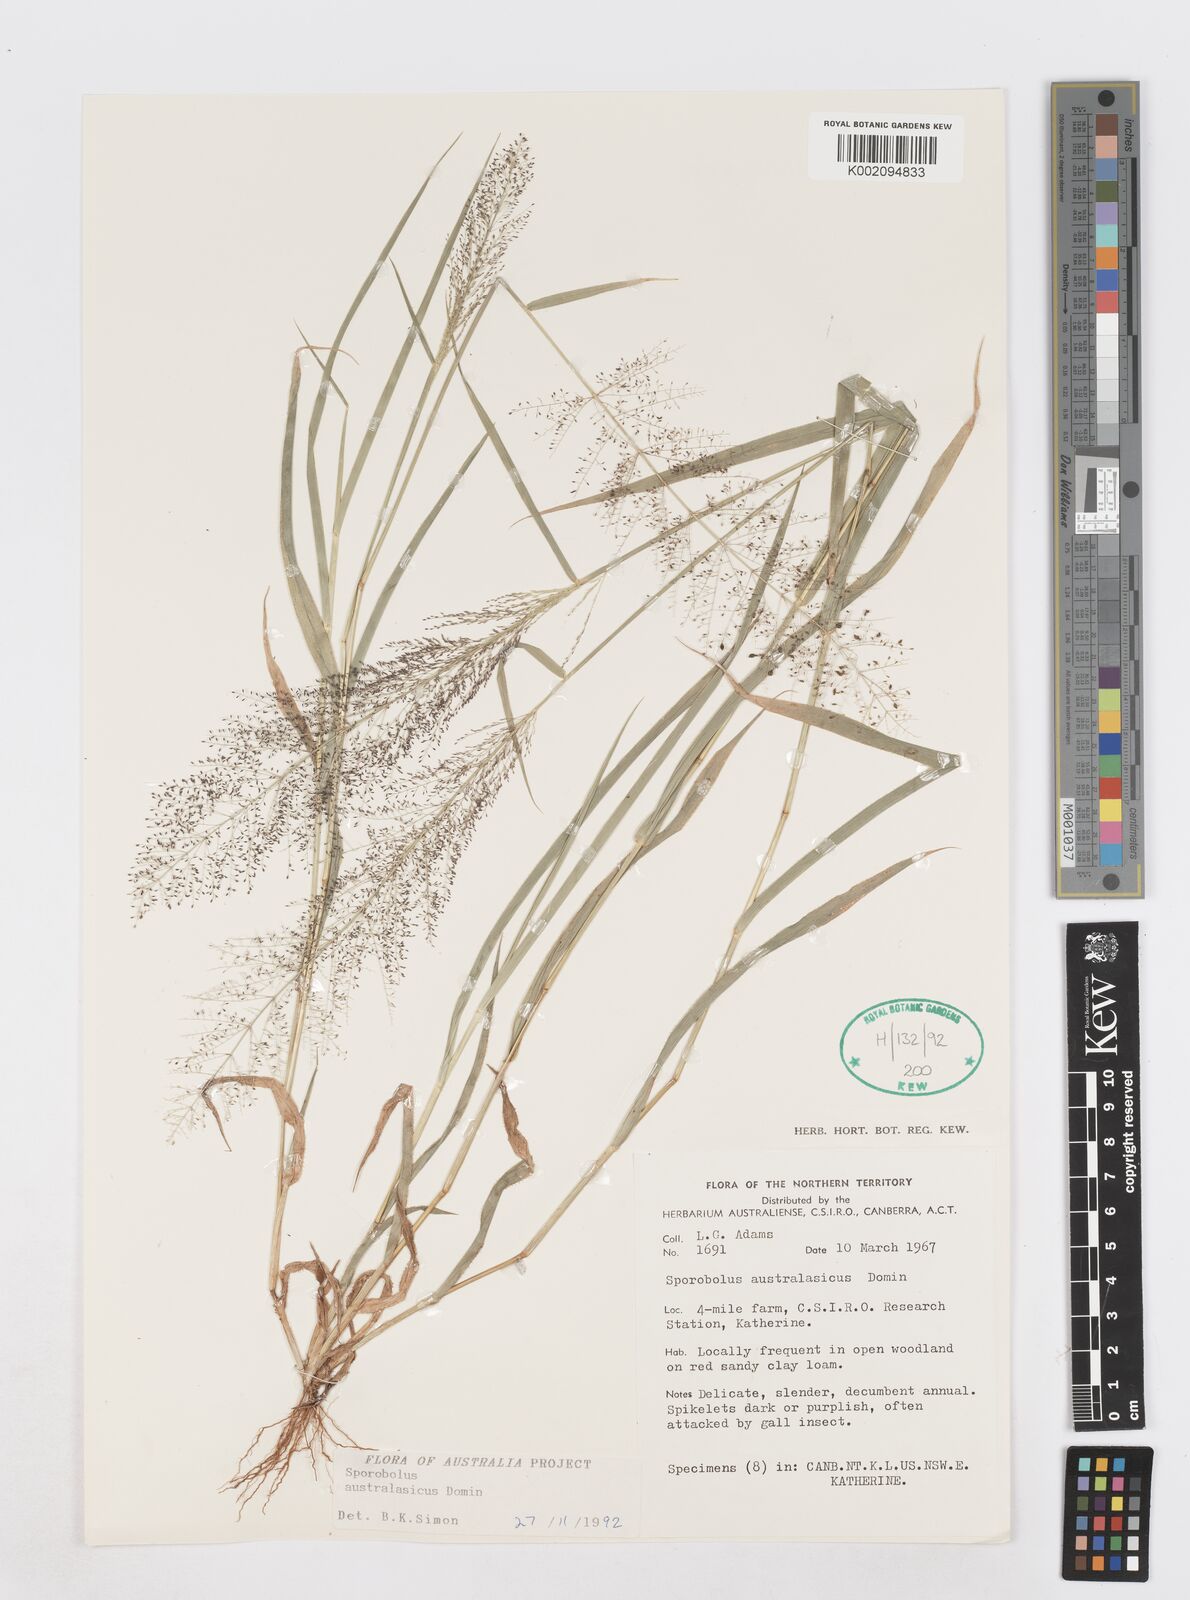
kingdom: Plantae
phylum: Tracheophyta
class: Liliopsida
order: Poales
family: Poaceae
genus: Sporobolus
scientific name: Sporobolus australasicus
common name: Australian dropseed
